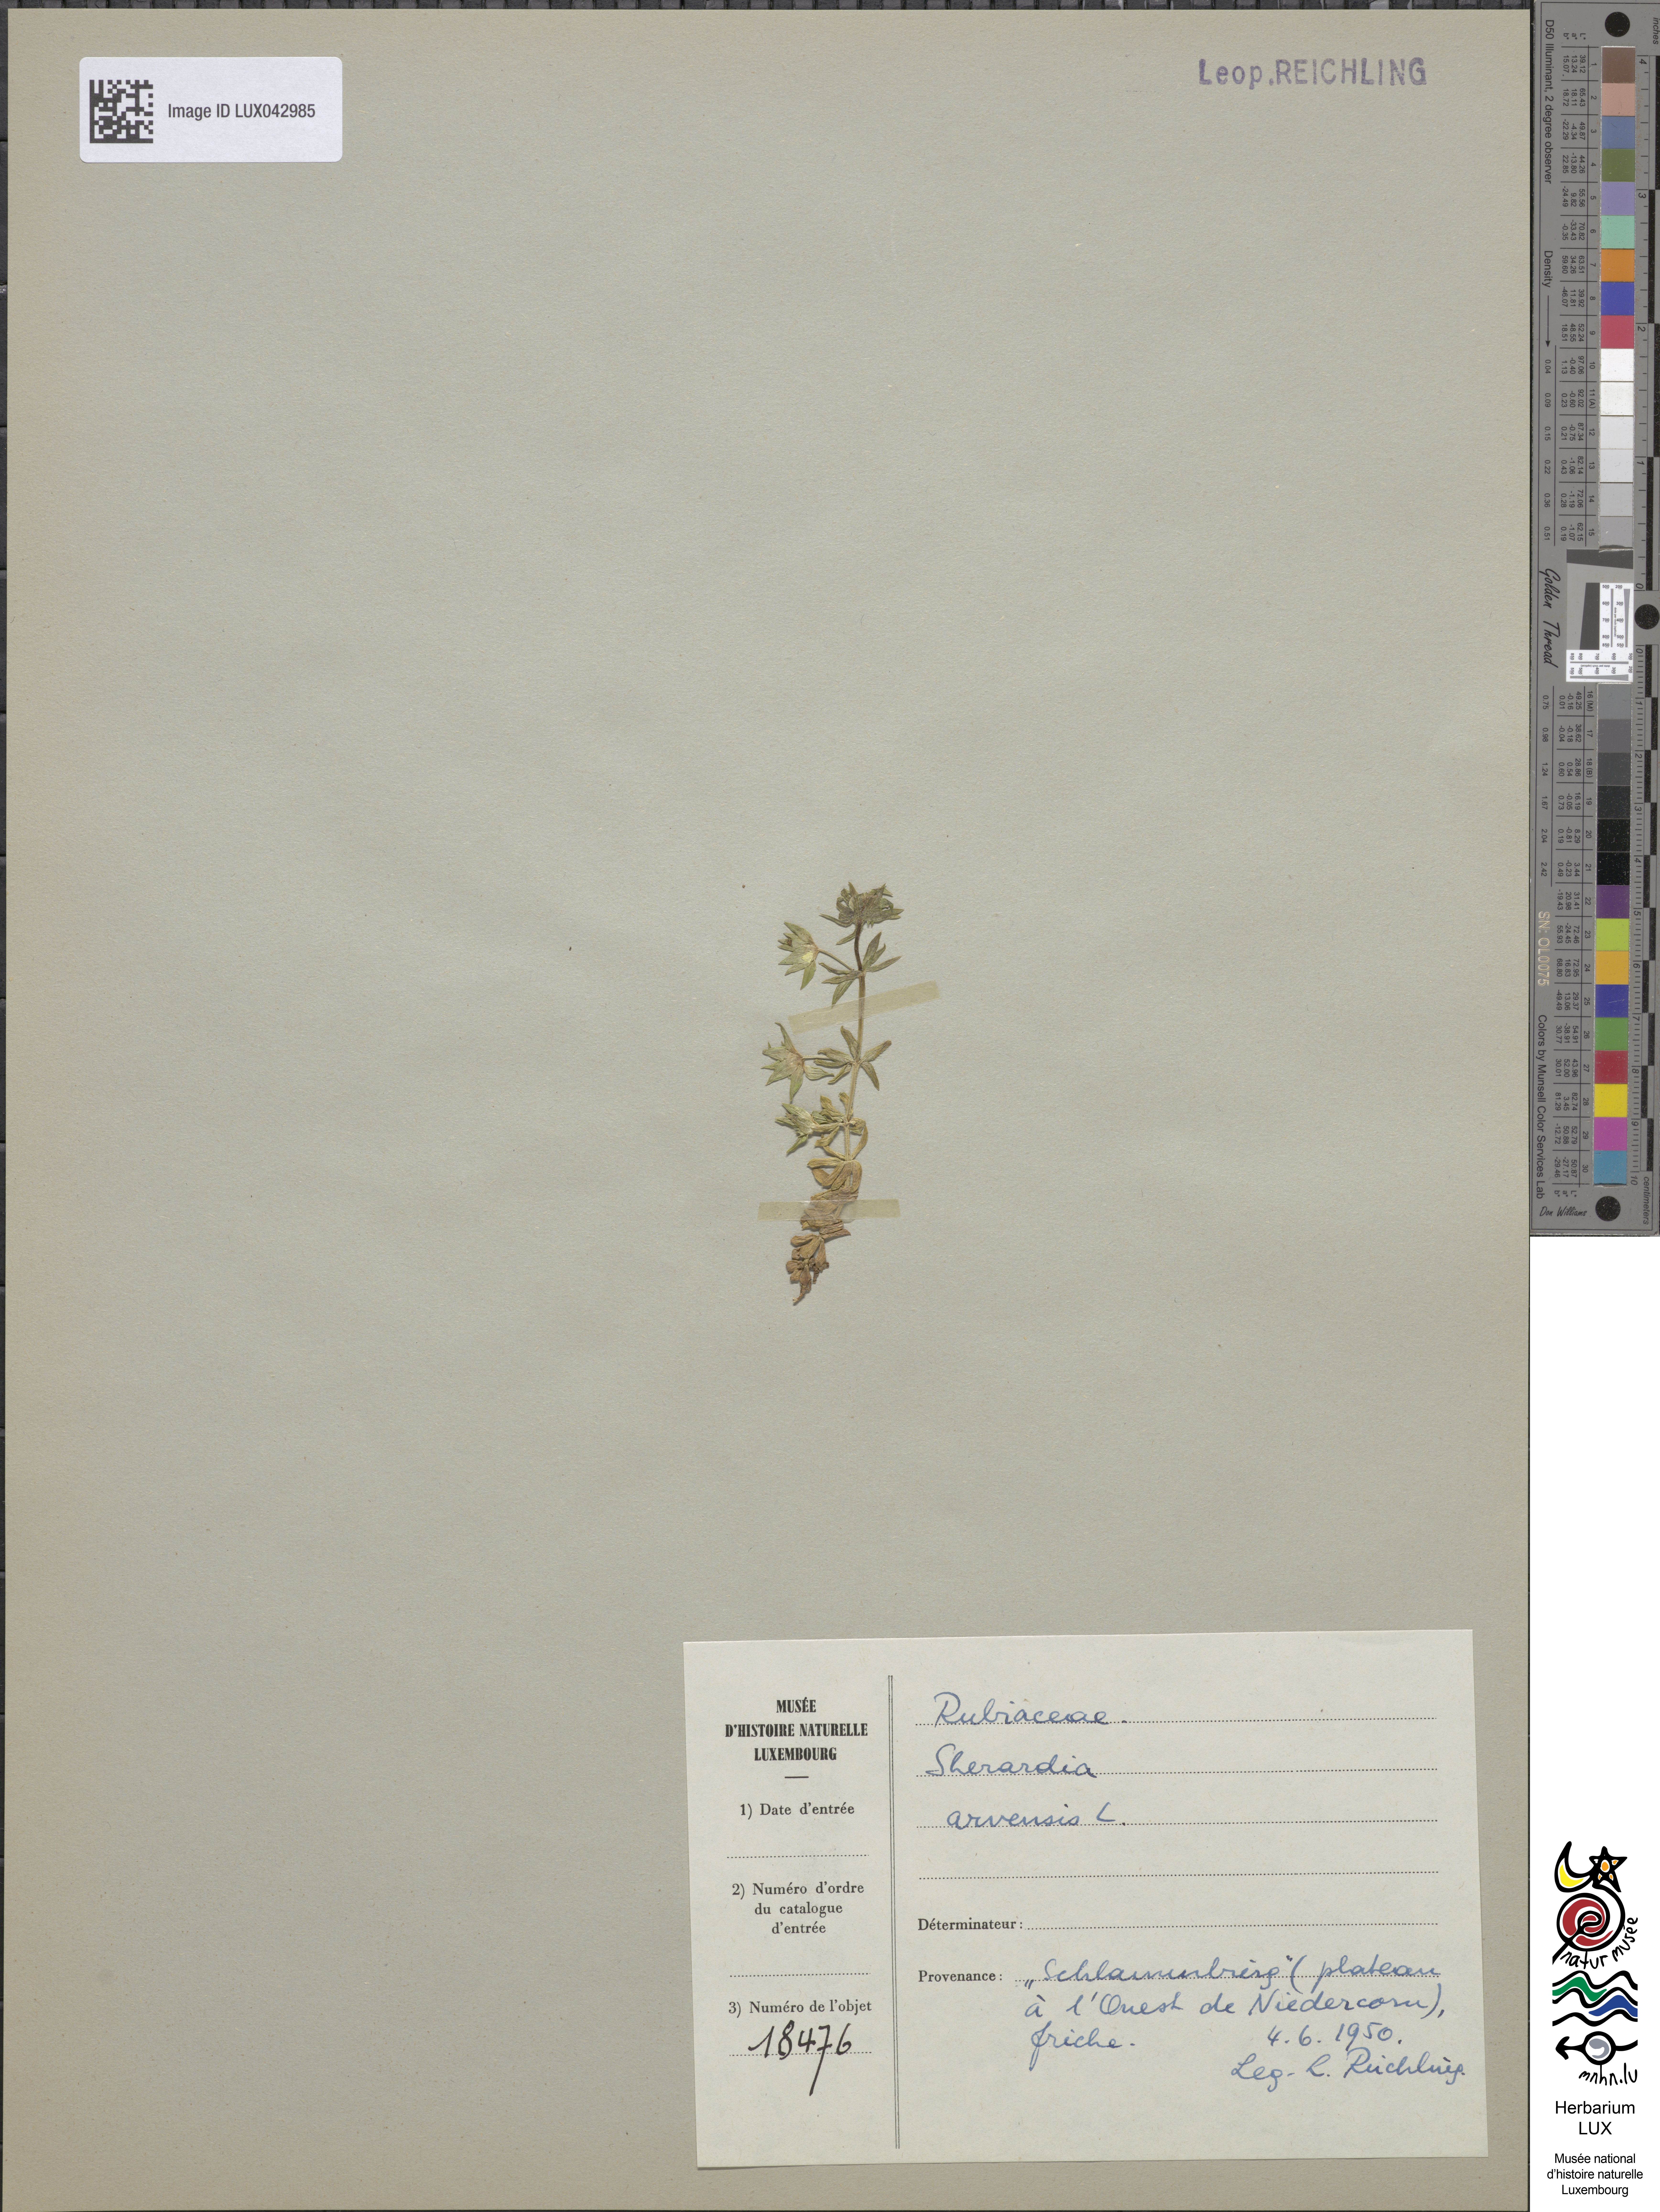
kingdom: Plantae
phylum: Tracheophyta
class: Magnoliopsida
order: Gentianales
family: Rubiaceae
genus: Sherardia
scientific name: Sherardia arvensis
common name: Field madder
